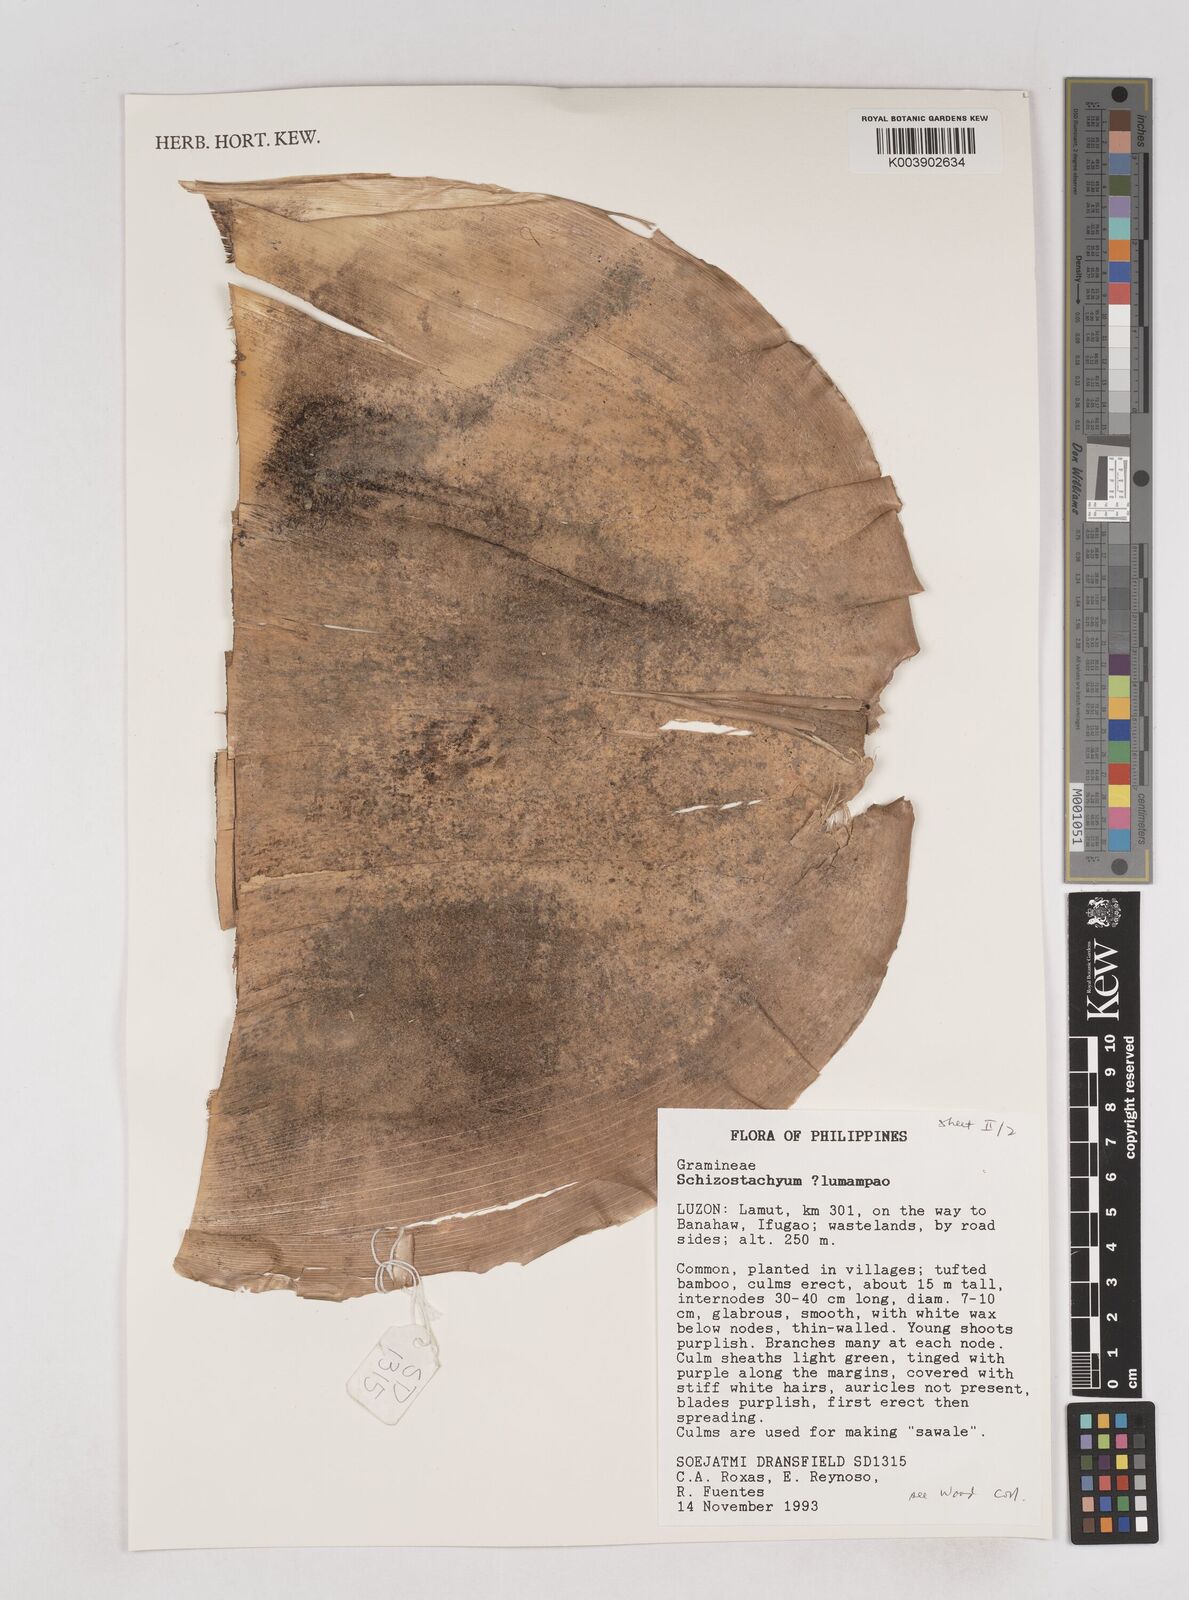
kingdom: Plantae
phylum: Tracheophyta
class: Liliopsida
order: Poales
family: Poaceae
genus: Schizostachyum
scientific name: Schizostachyum lumampao
